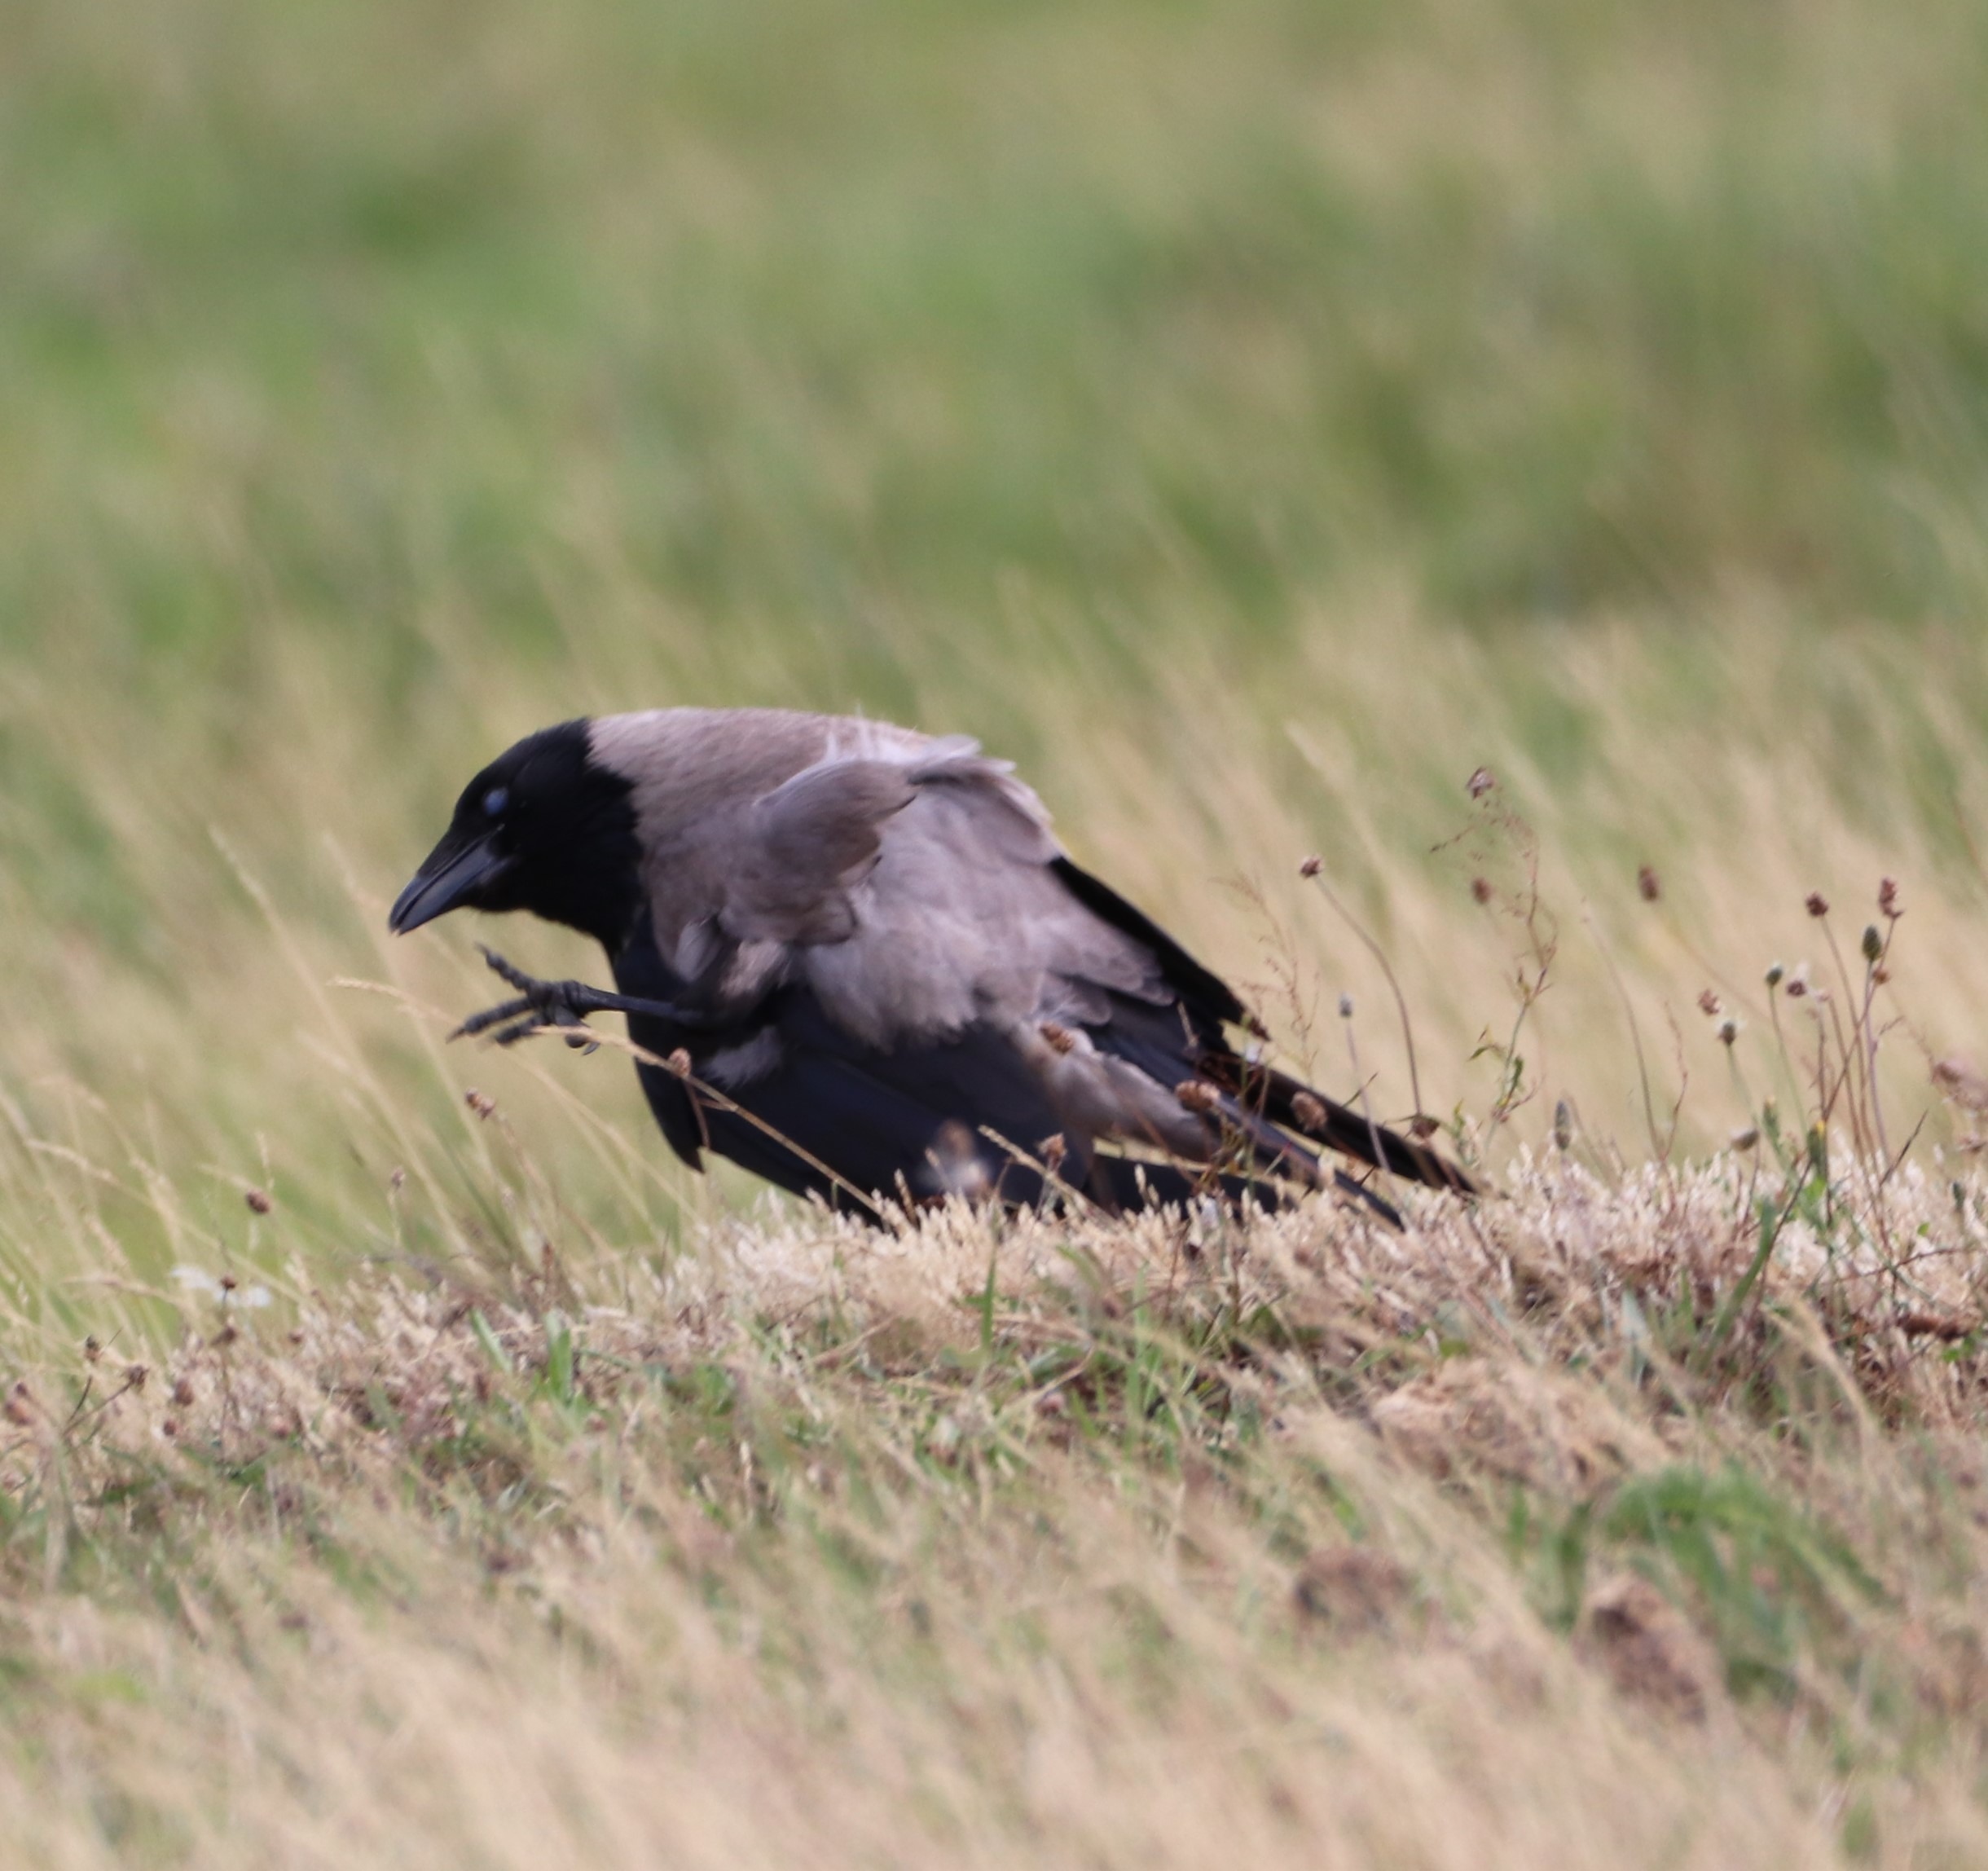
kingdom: Animalia
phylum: Chordata
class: Aves
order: Passeriformes
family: Corvidae
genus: Corvus
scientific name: Corvus cornix
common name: Gråkrage
